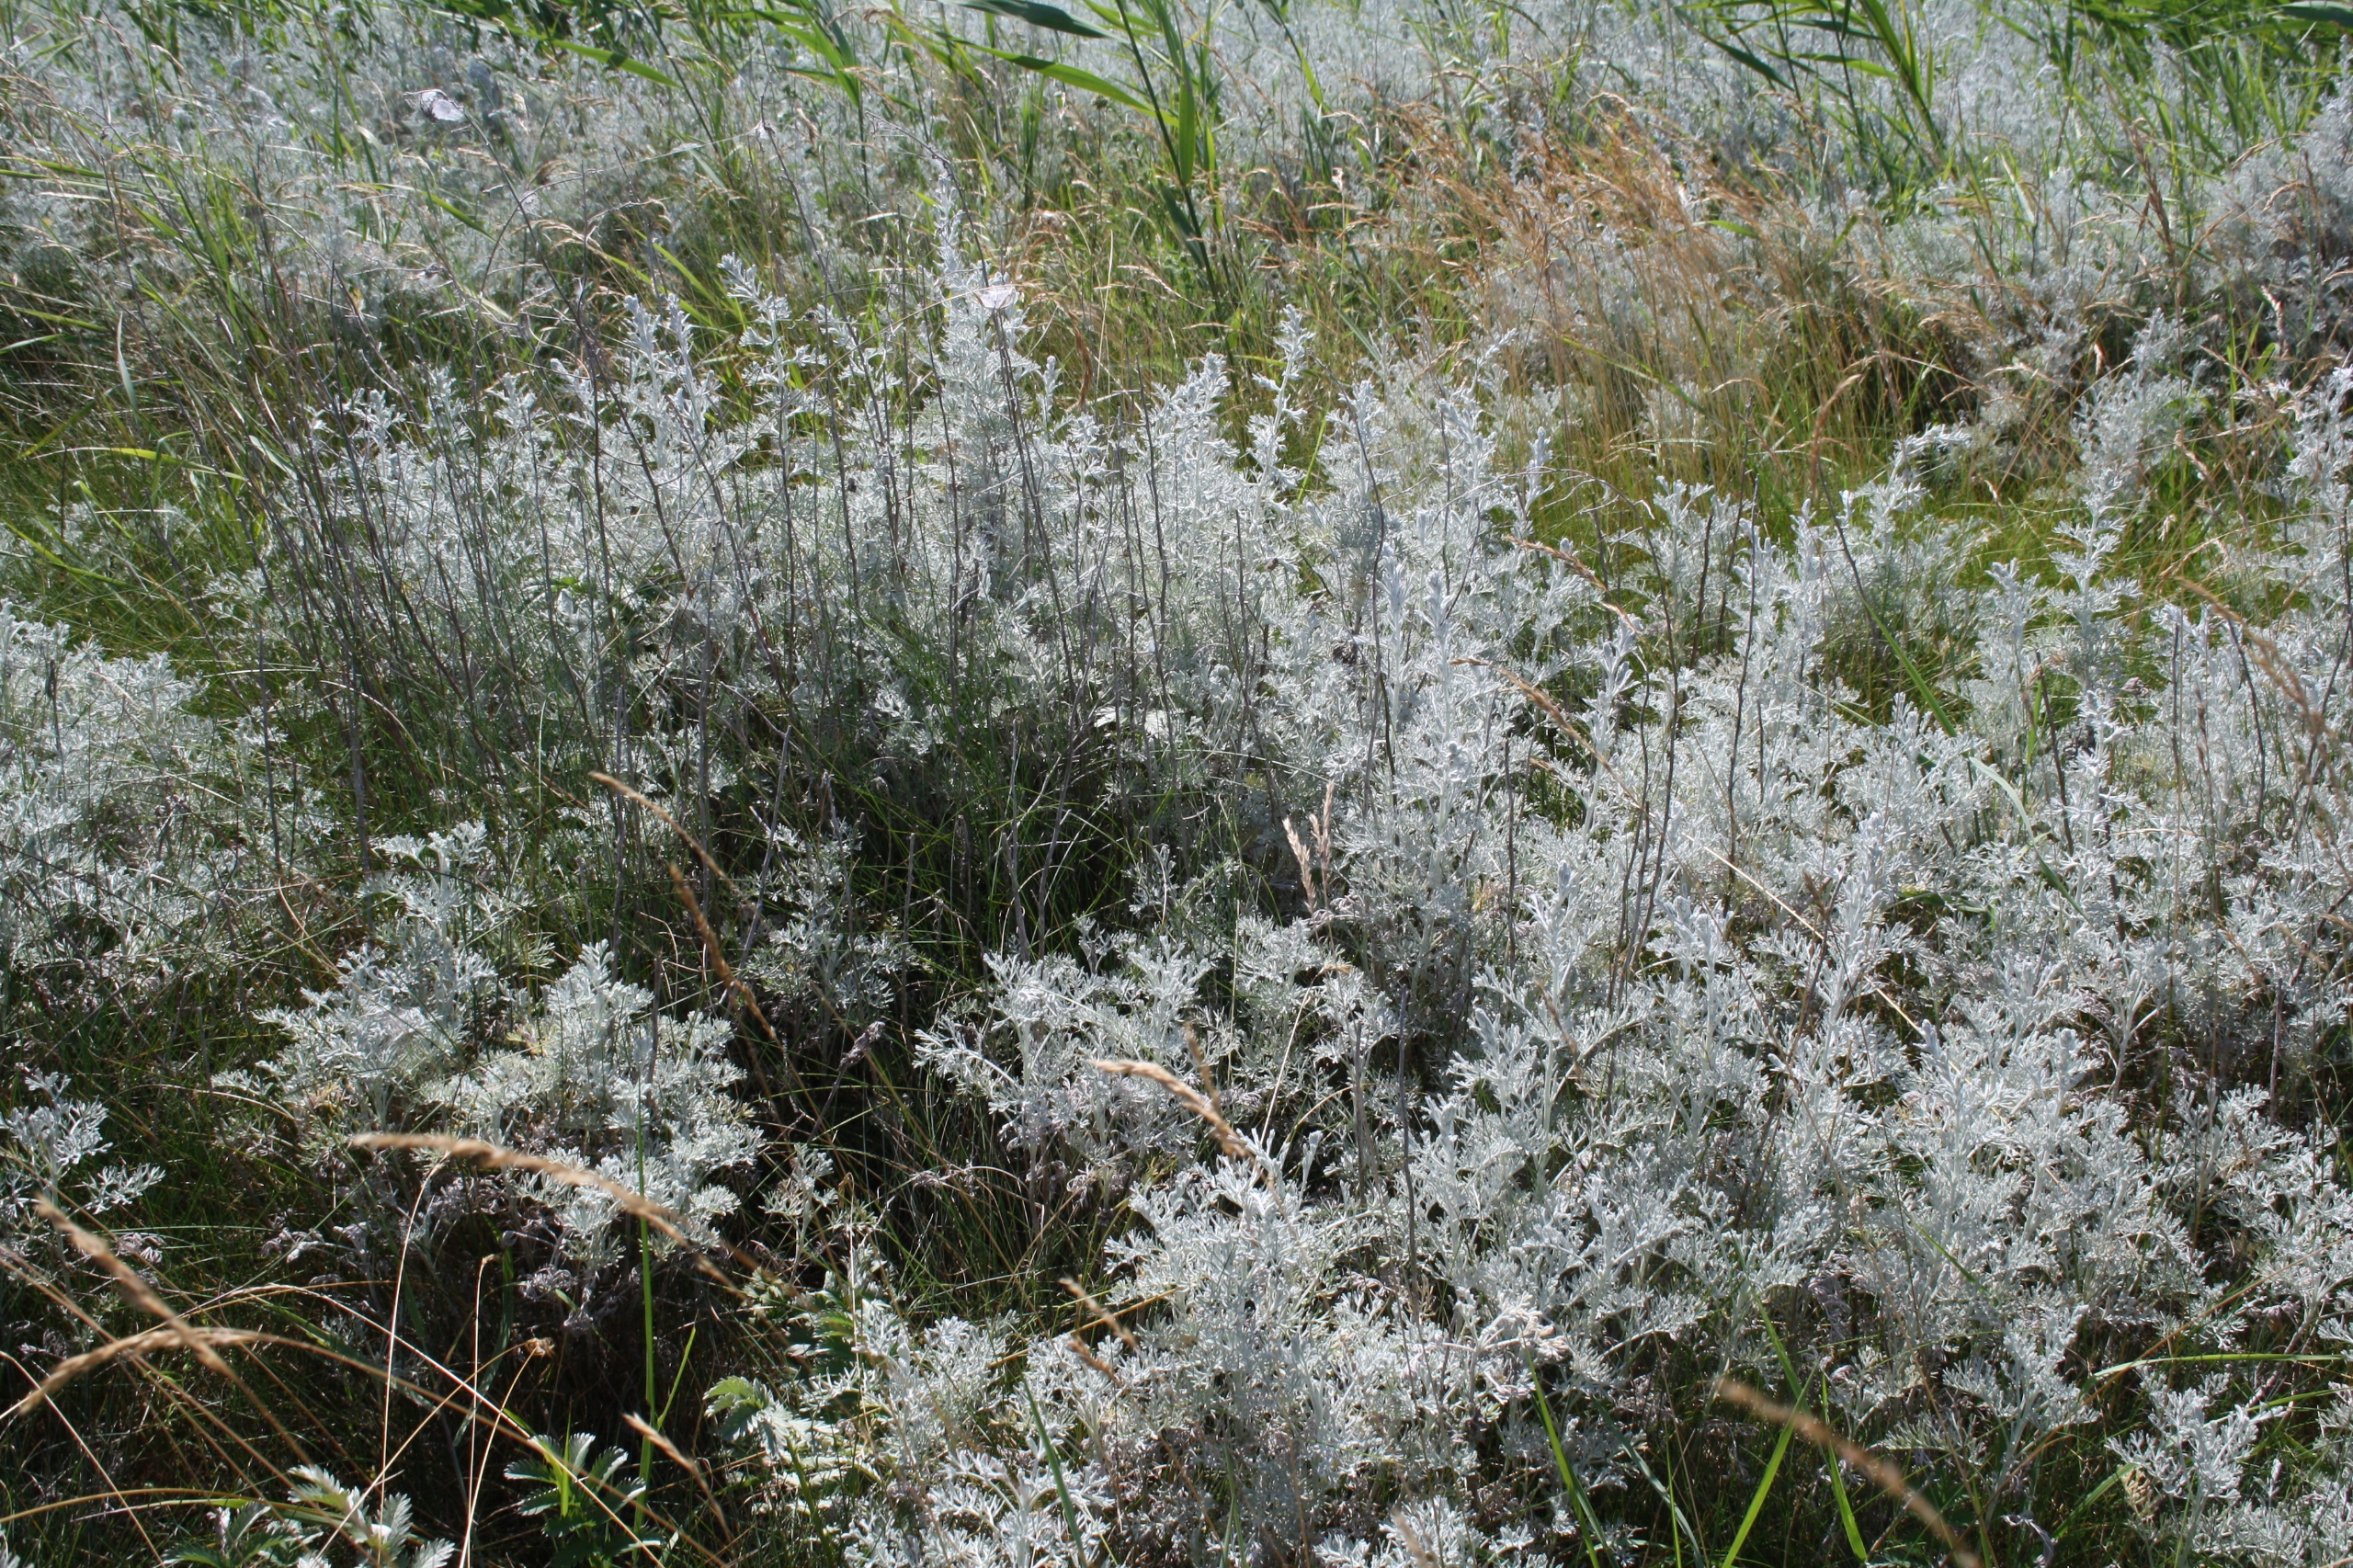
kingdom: Plantae
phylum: Tracheophyta
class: Magnoliopsida
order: Asterales
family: Asteraceae
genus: Artemisia
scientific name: Artemisia maritima
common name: Strandmalurt
